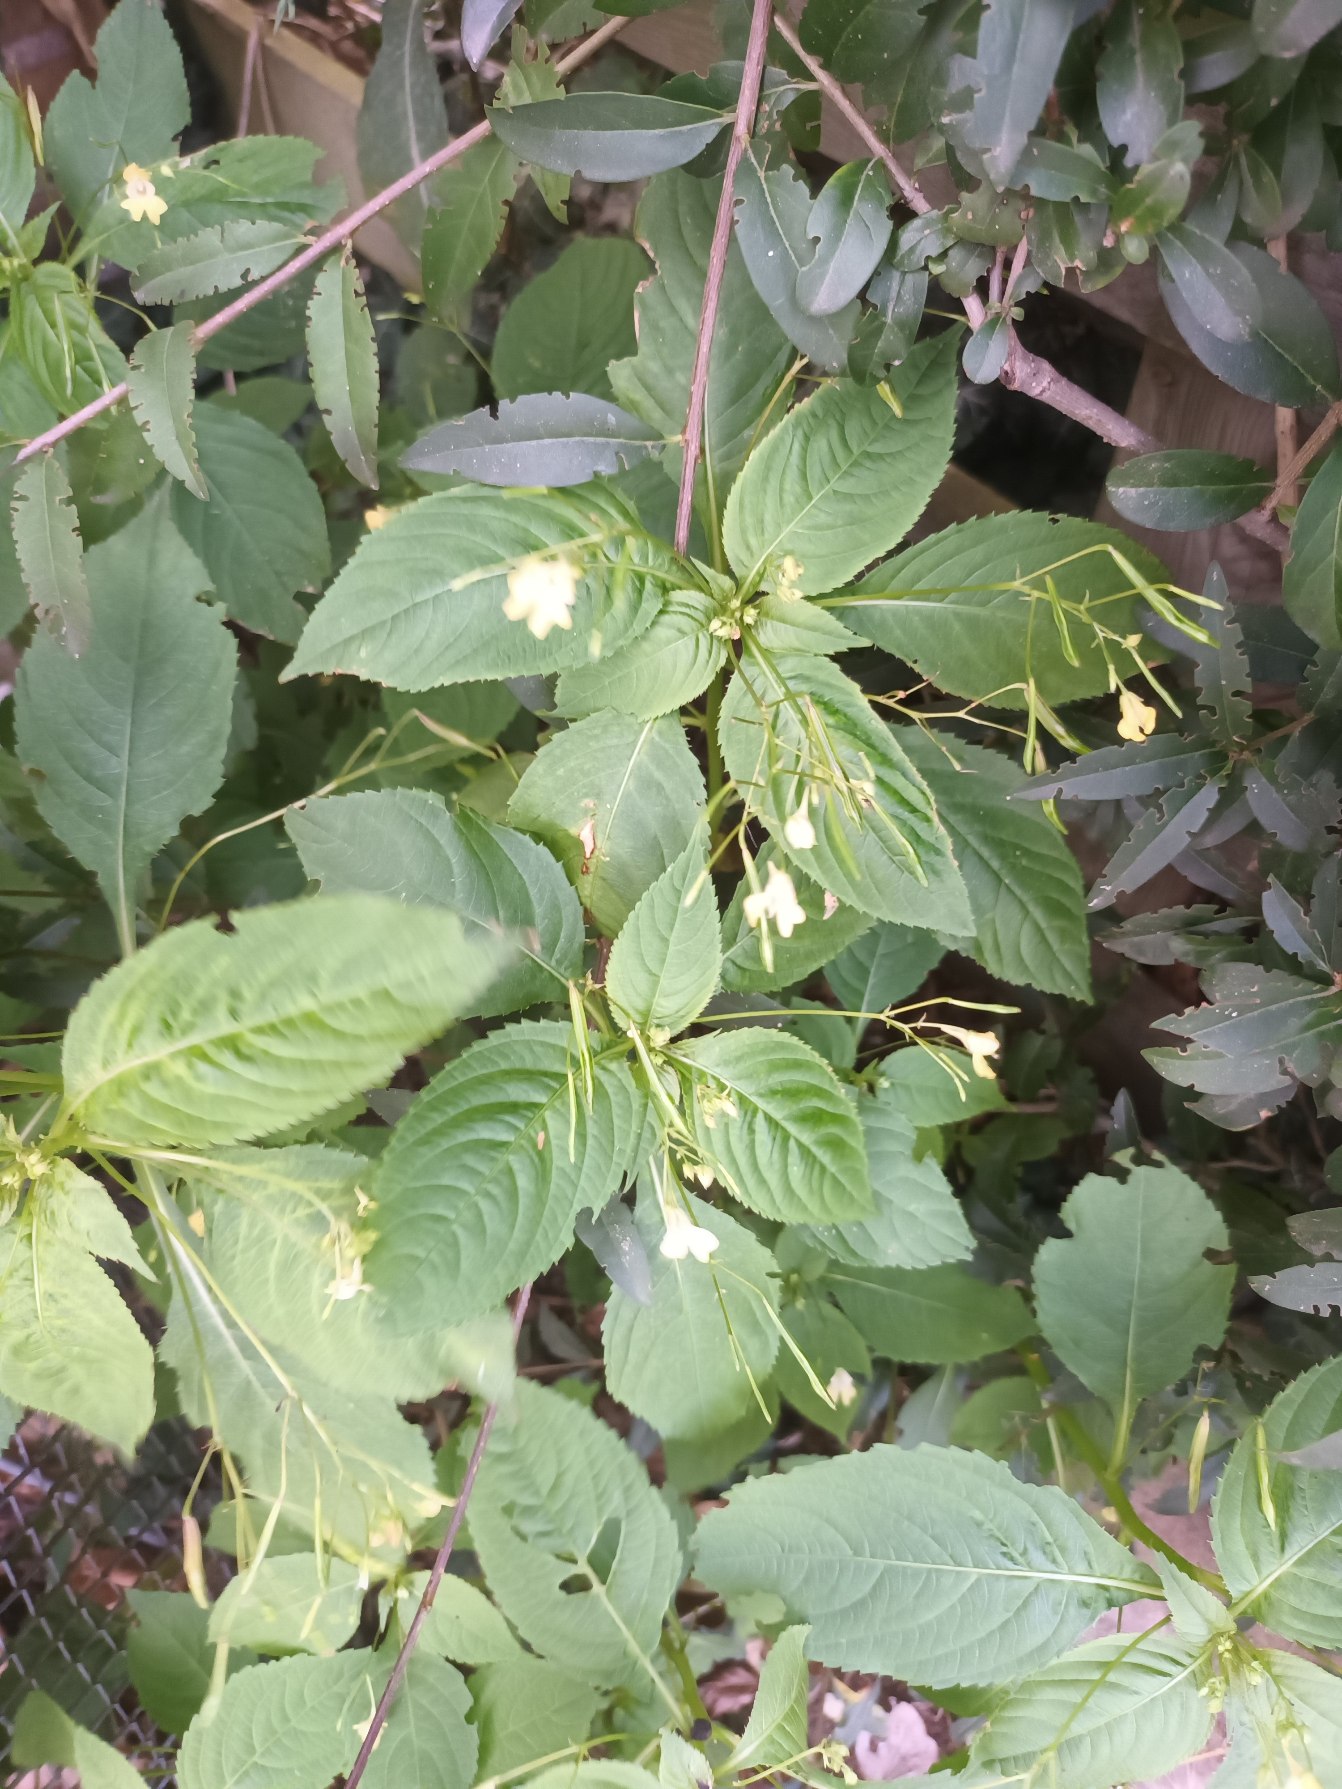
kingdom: Plantae
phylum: Tracheophyta
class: Magnoliopsida
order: Ericales
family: Balsaminaceae
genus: Impatiens
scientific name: Impatiens parviflora
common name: Småblomstret balsamin
